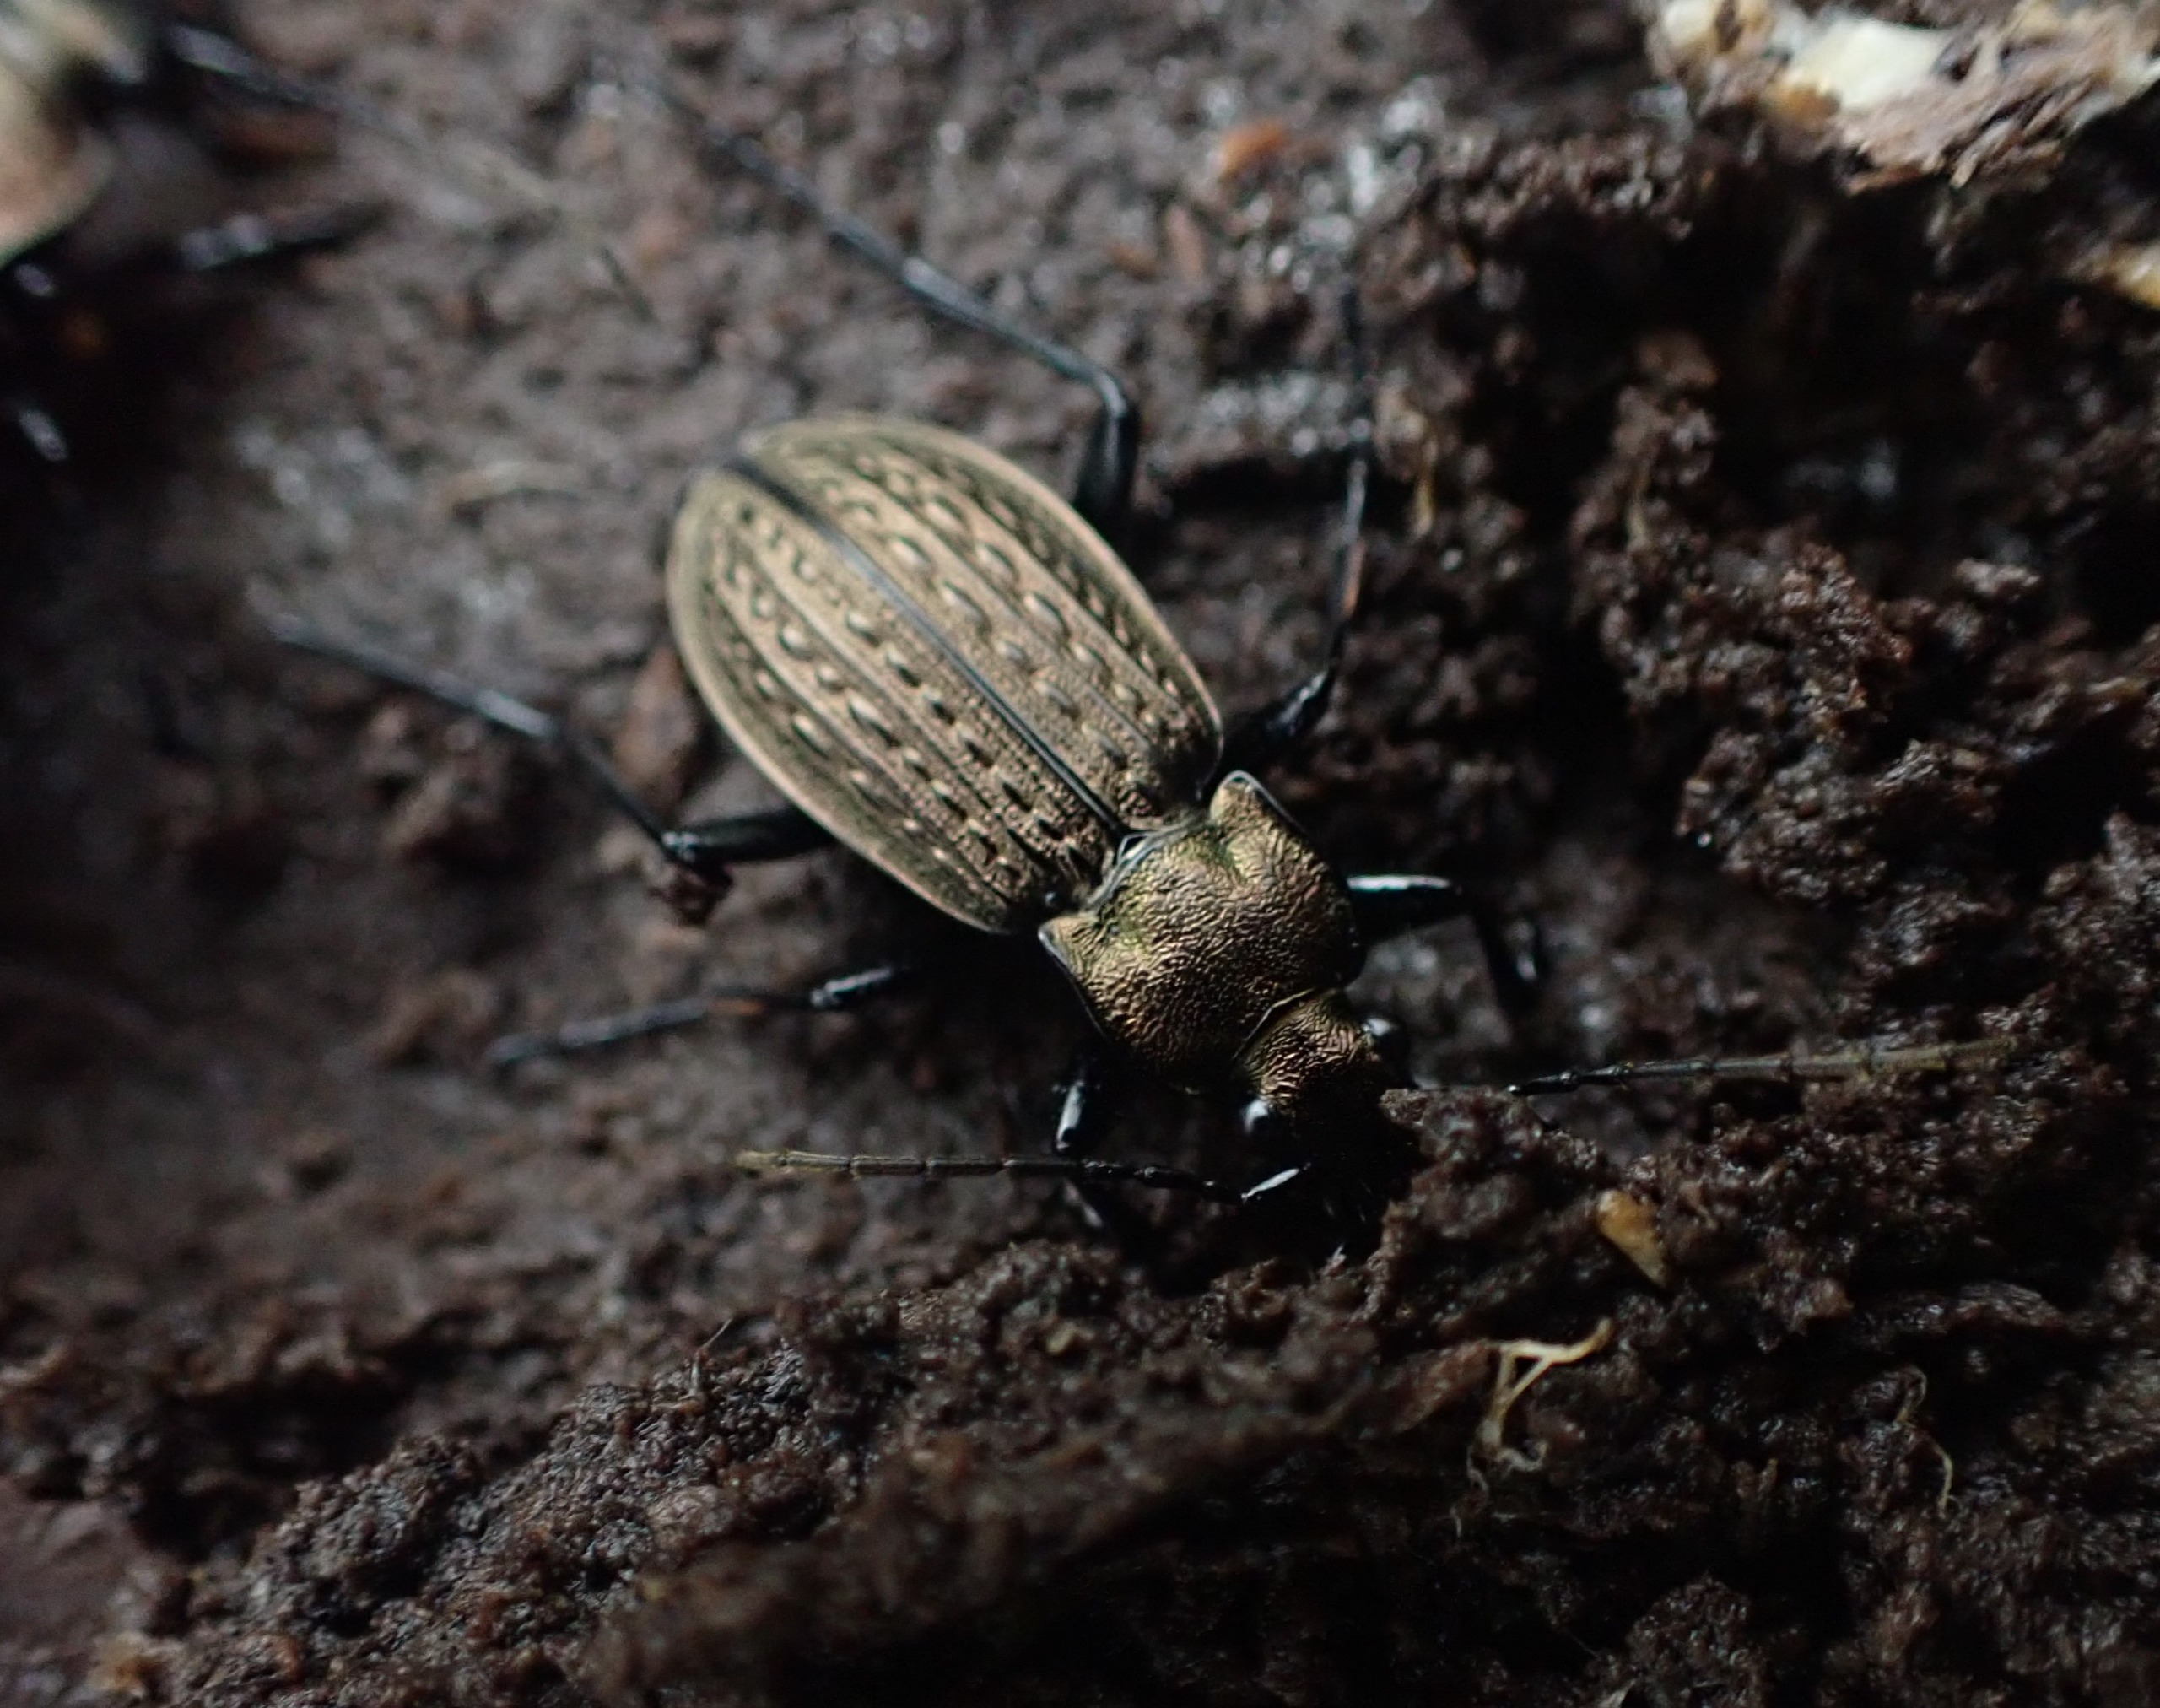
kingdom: Animalia
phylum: Arthropoda
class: Insecta
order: Coleoptera
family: Carabidae
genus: Carabus
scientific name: Carabus granulatus
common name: Kornet løber
